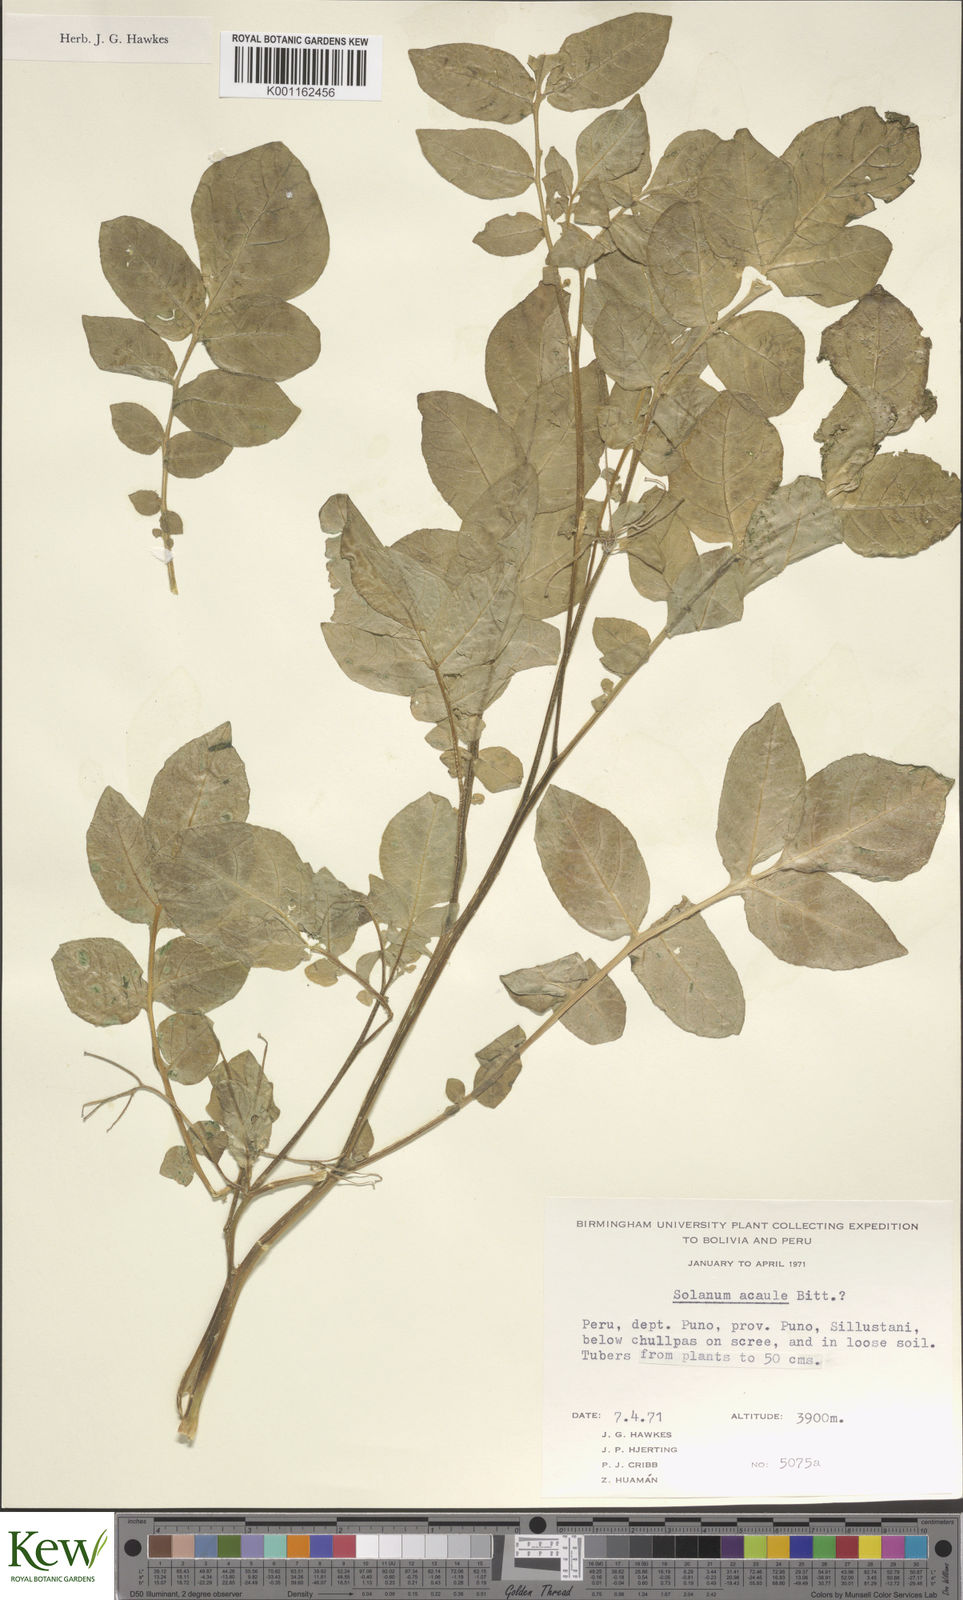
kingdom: Plantae
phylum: Tracheophyta
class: Magnoliopsida
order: Solanales
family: Solanaceae
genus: Solanum
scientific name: Solanum acaule
